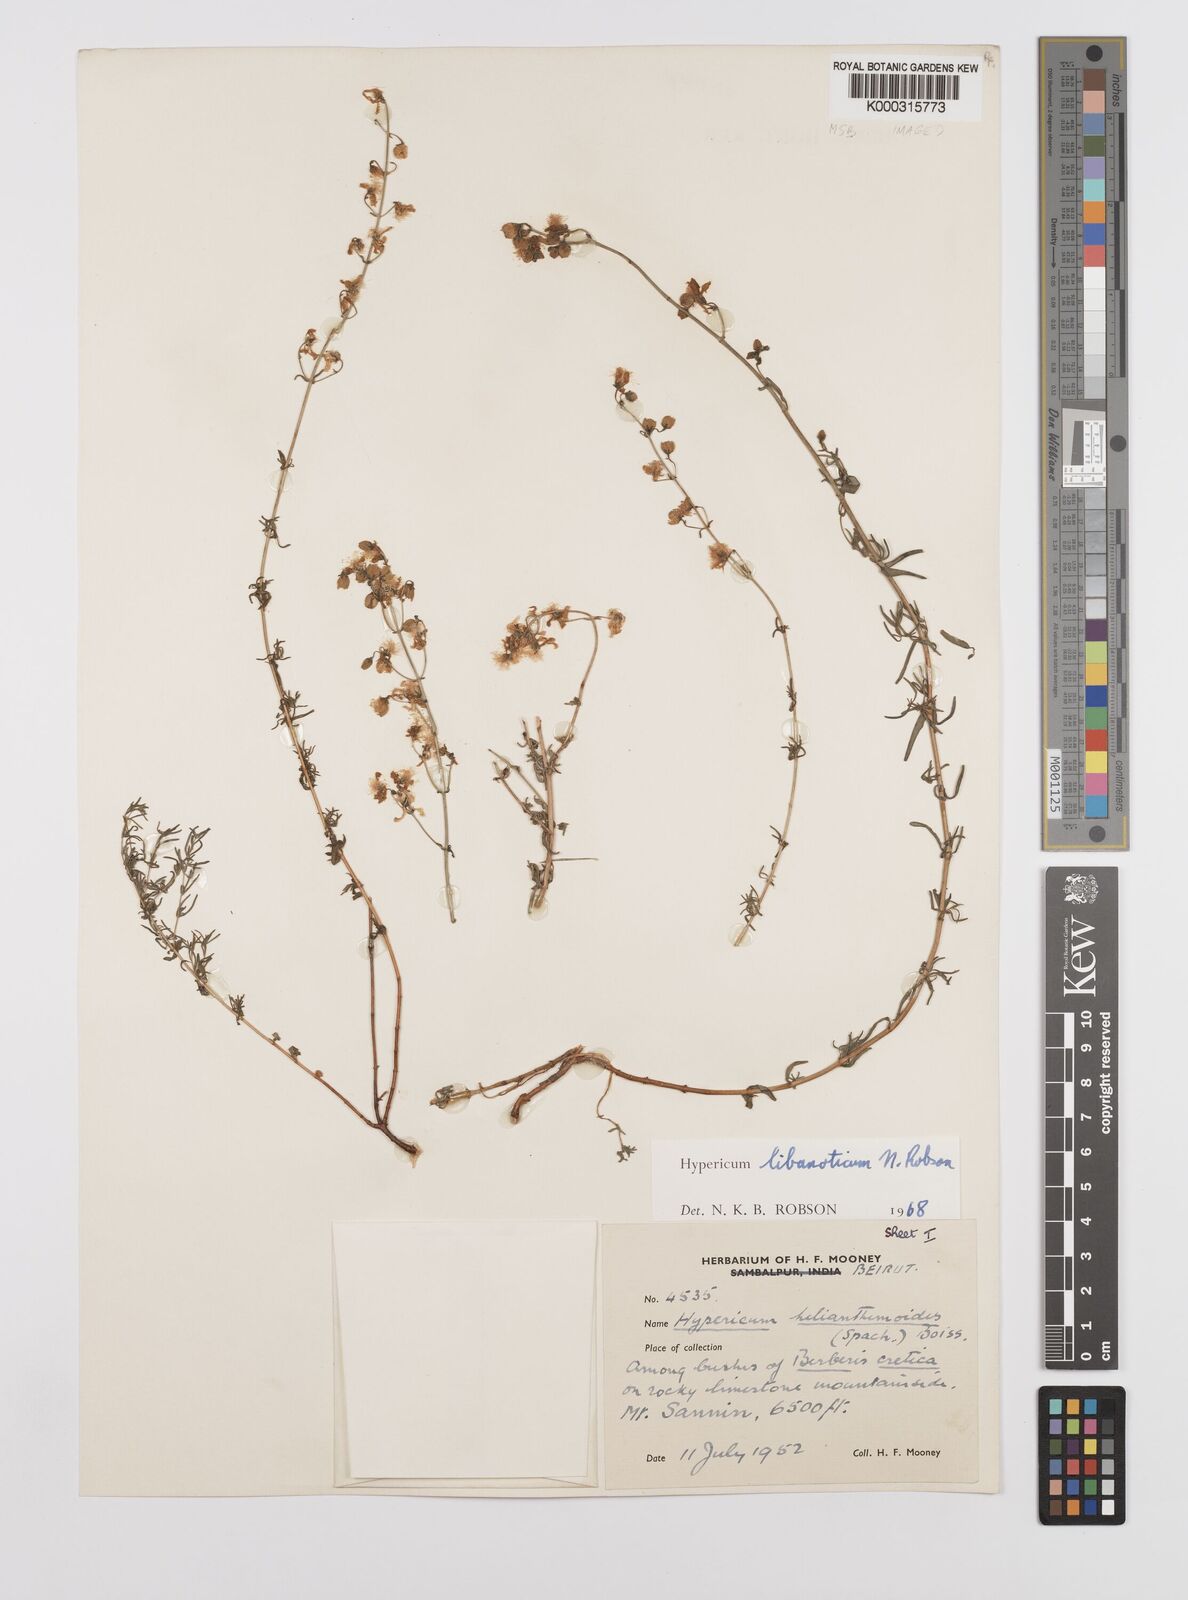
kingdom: Plantae
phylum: Tracheophyta
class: Magnoliopsida
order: Malpighiales
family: Hypericaceae
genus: Hypericum
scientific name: Hypericum libanoticum
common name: Lebanon saint john’s wort
